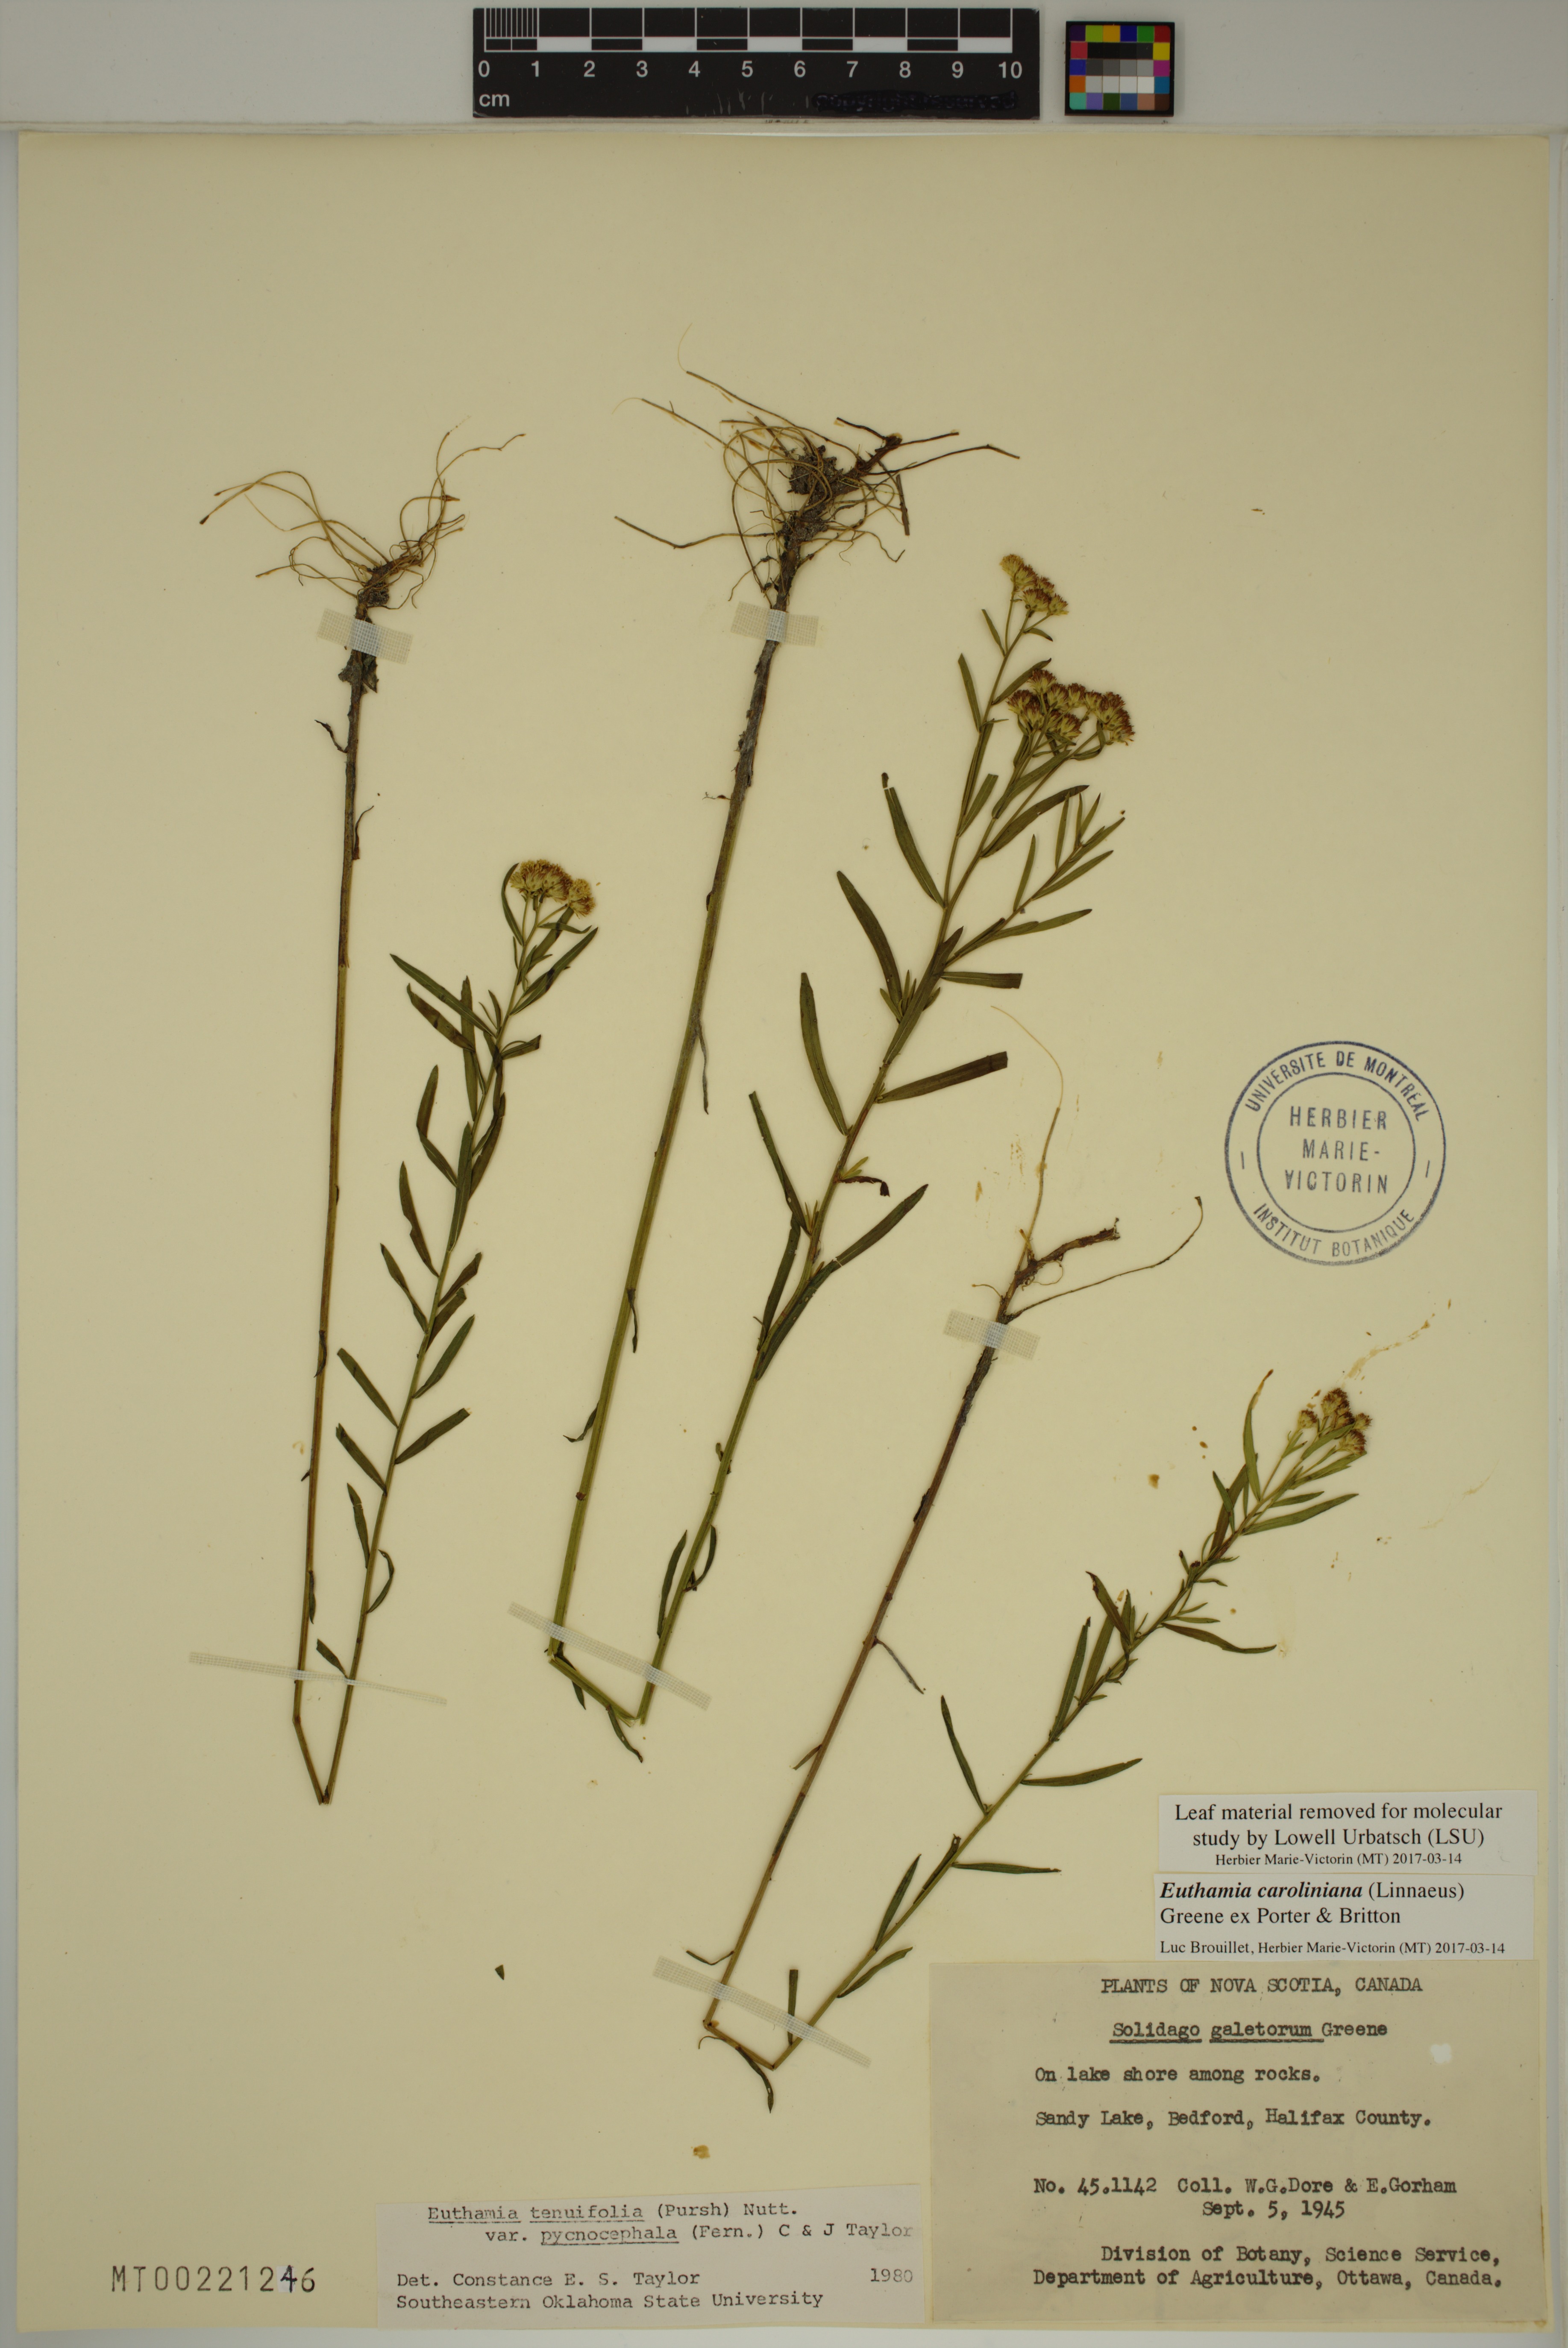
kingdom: Plantae
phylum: Tracheophyta
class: Magnoliopsida
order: Asterales
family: Asteraceae
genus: Euthamia
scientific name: Euthamia galetorum
